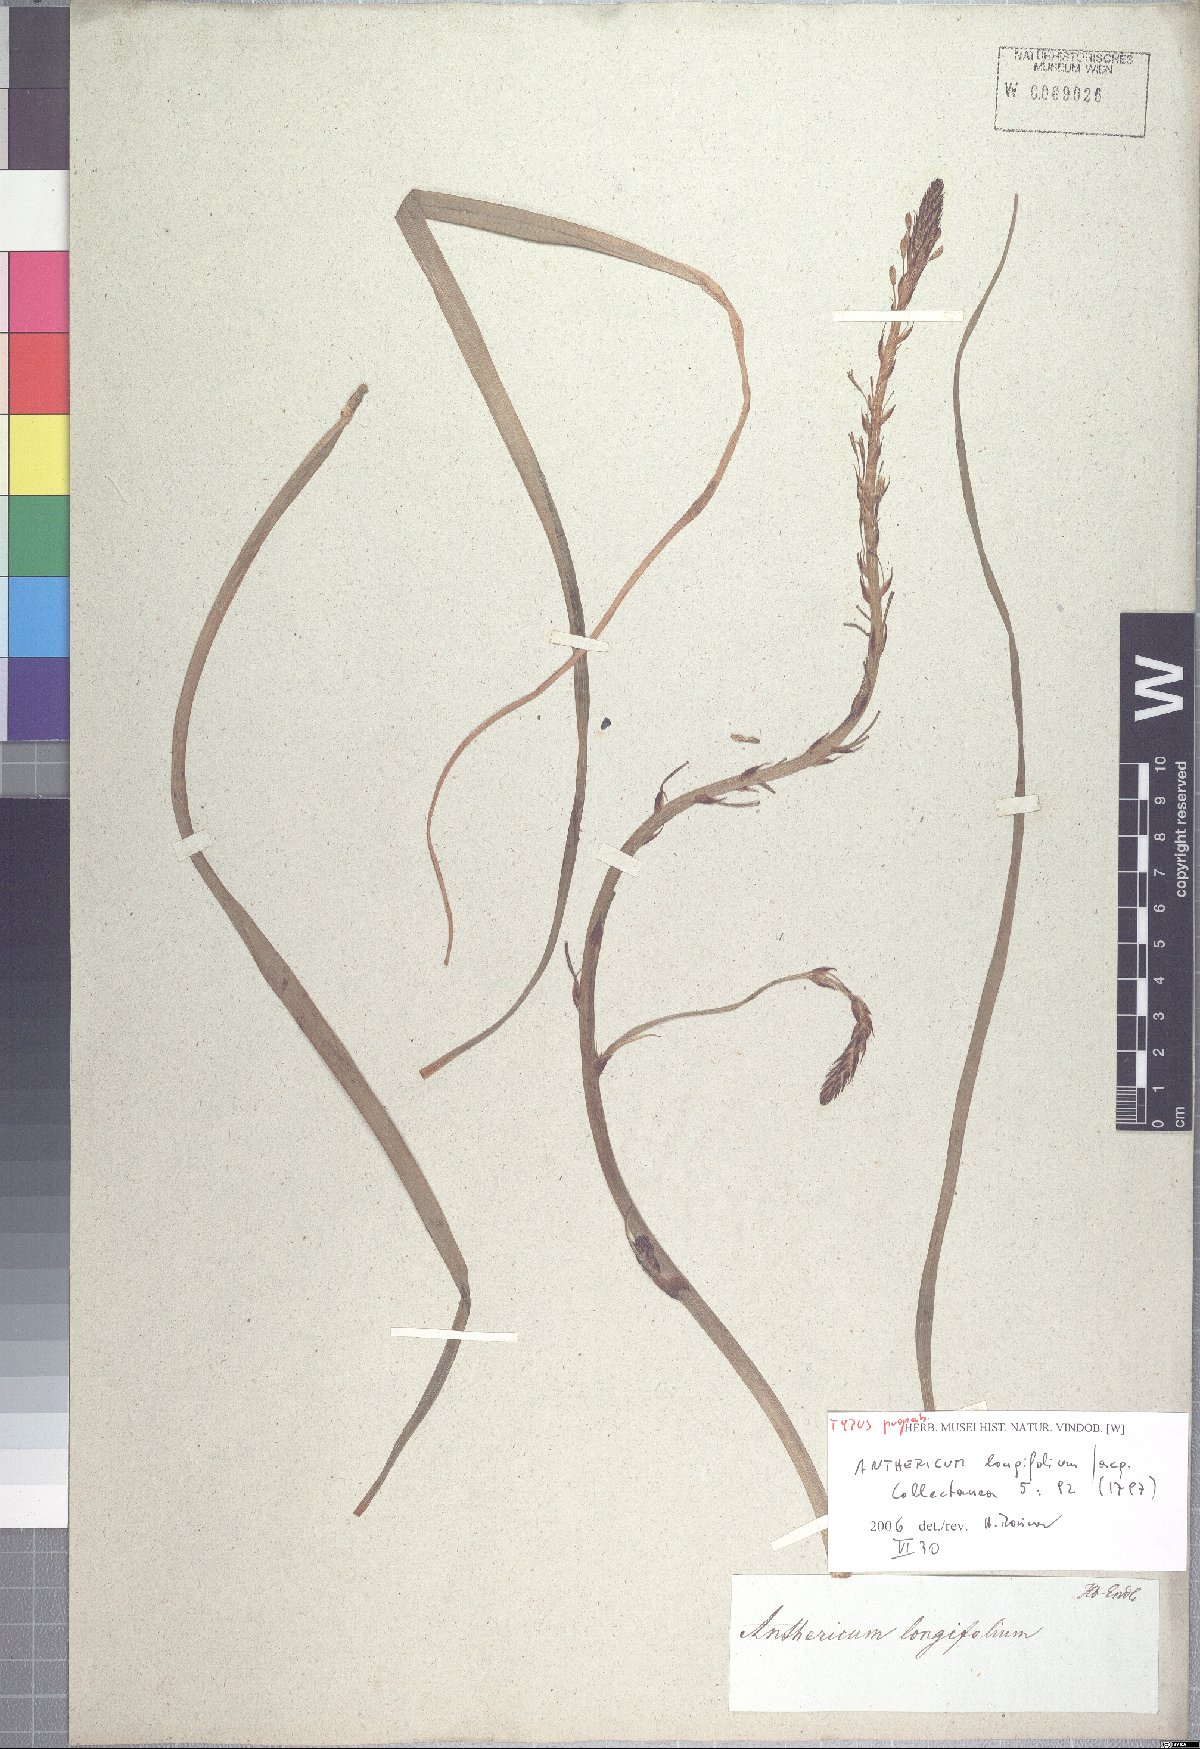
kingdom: Plantae
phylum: Tracheophyta
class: Liliopsida
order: Asparagales
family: Asphodelaceae
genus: Trachyandra
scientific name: Trachyandra ciliata
